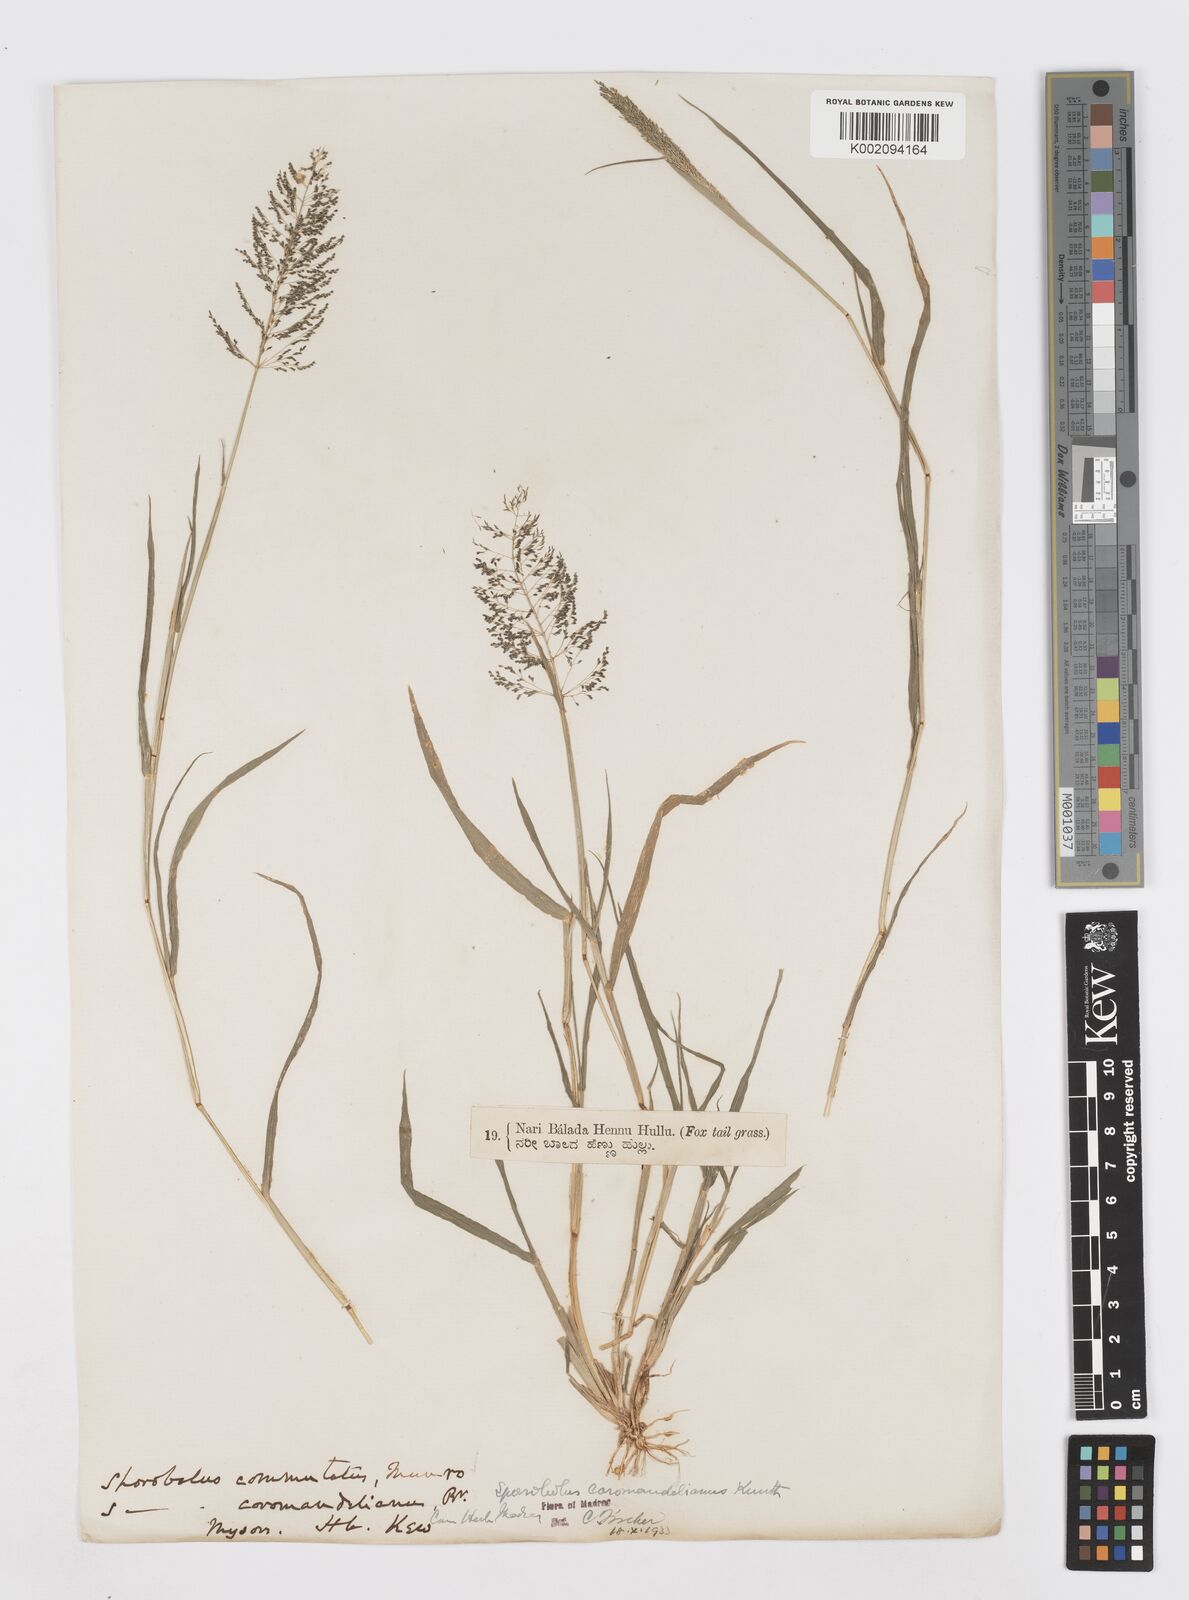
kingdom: Plantae
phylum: Tracheophyta
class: Liliopsida
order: Poales
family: Poaceae
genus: Sporobolus
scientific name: Sporobolus coromandelianus
